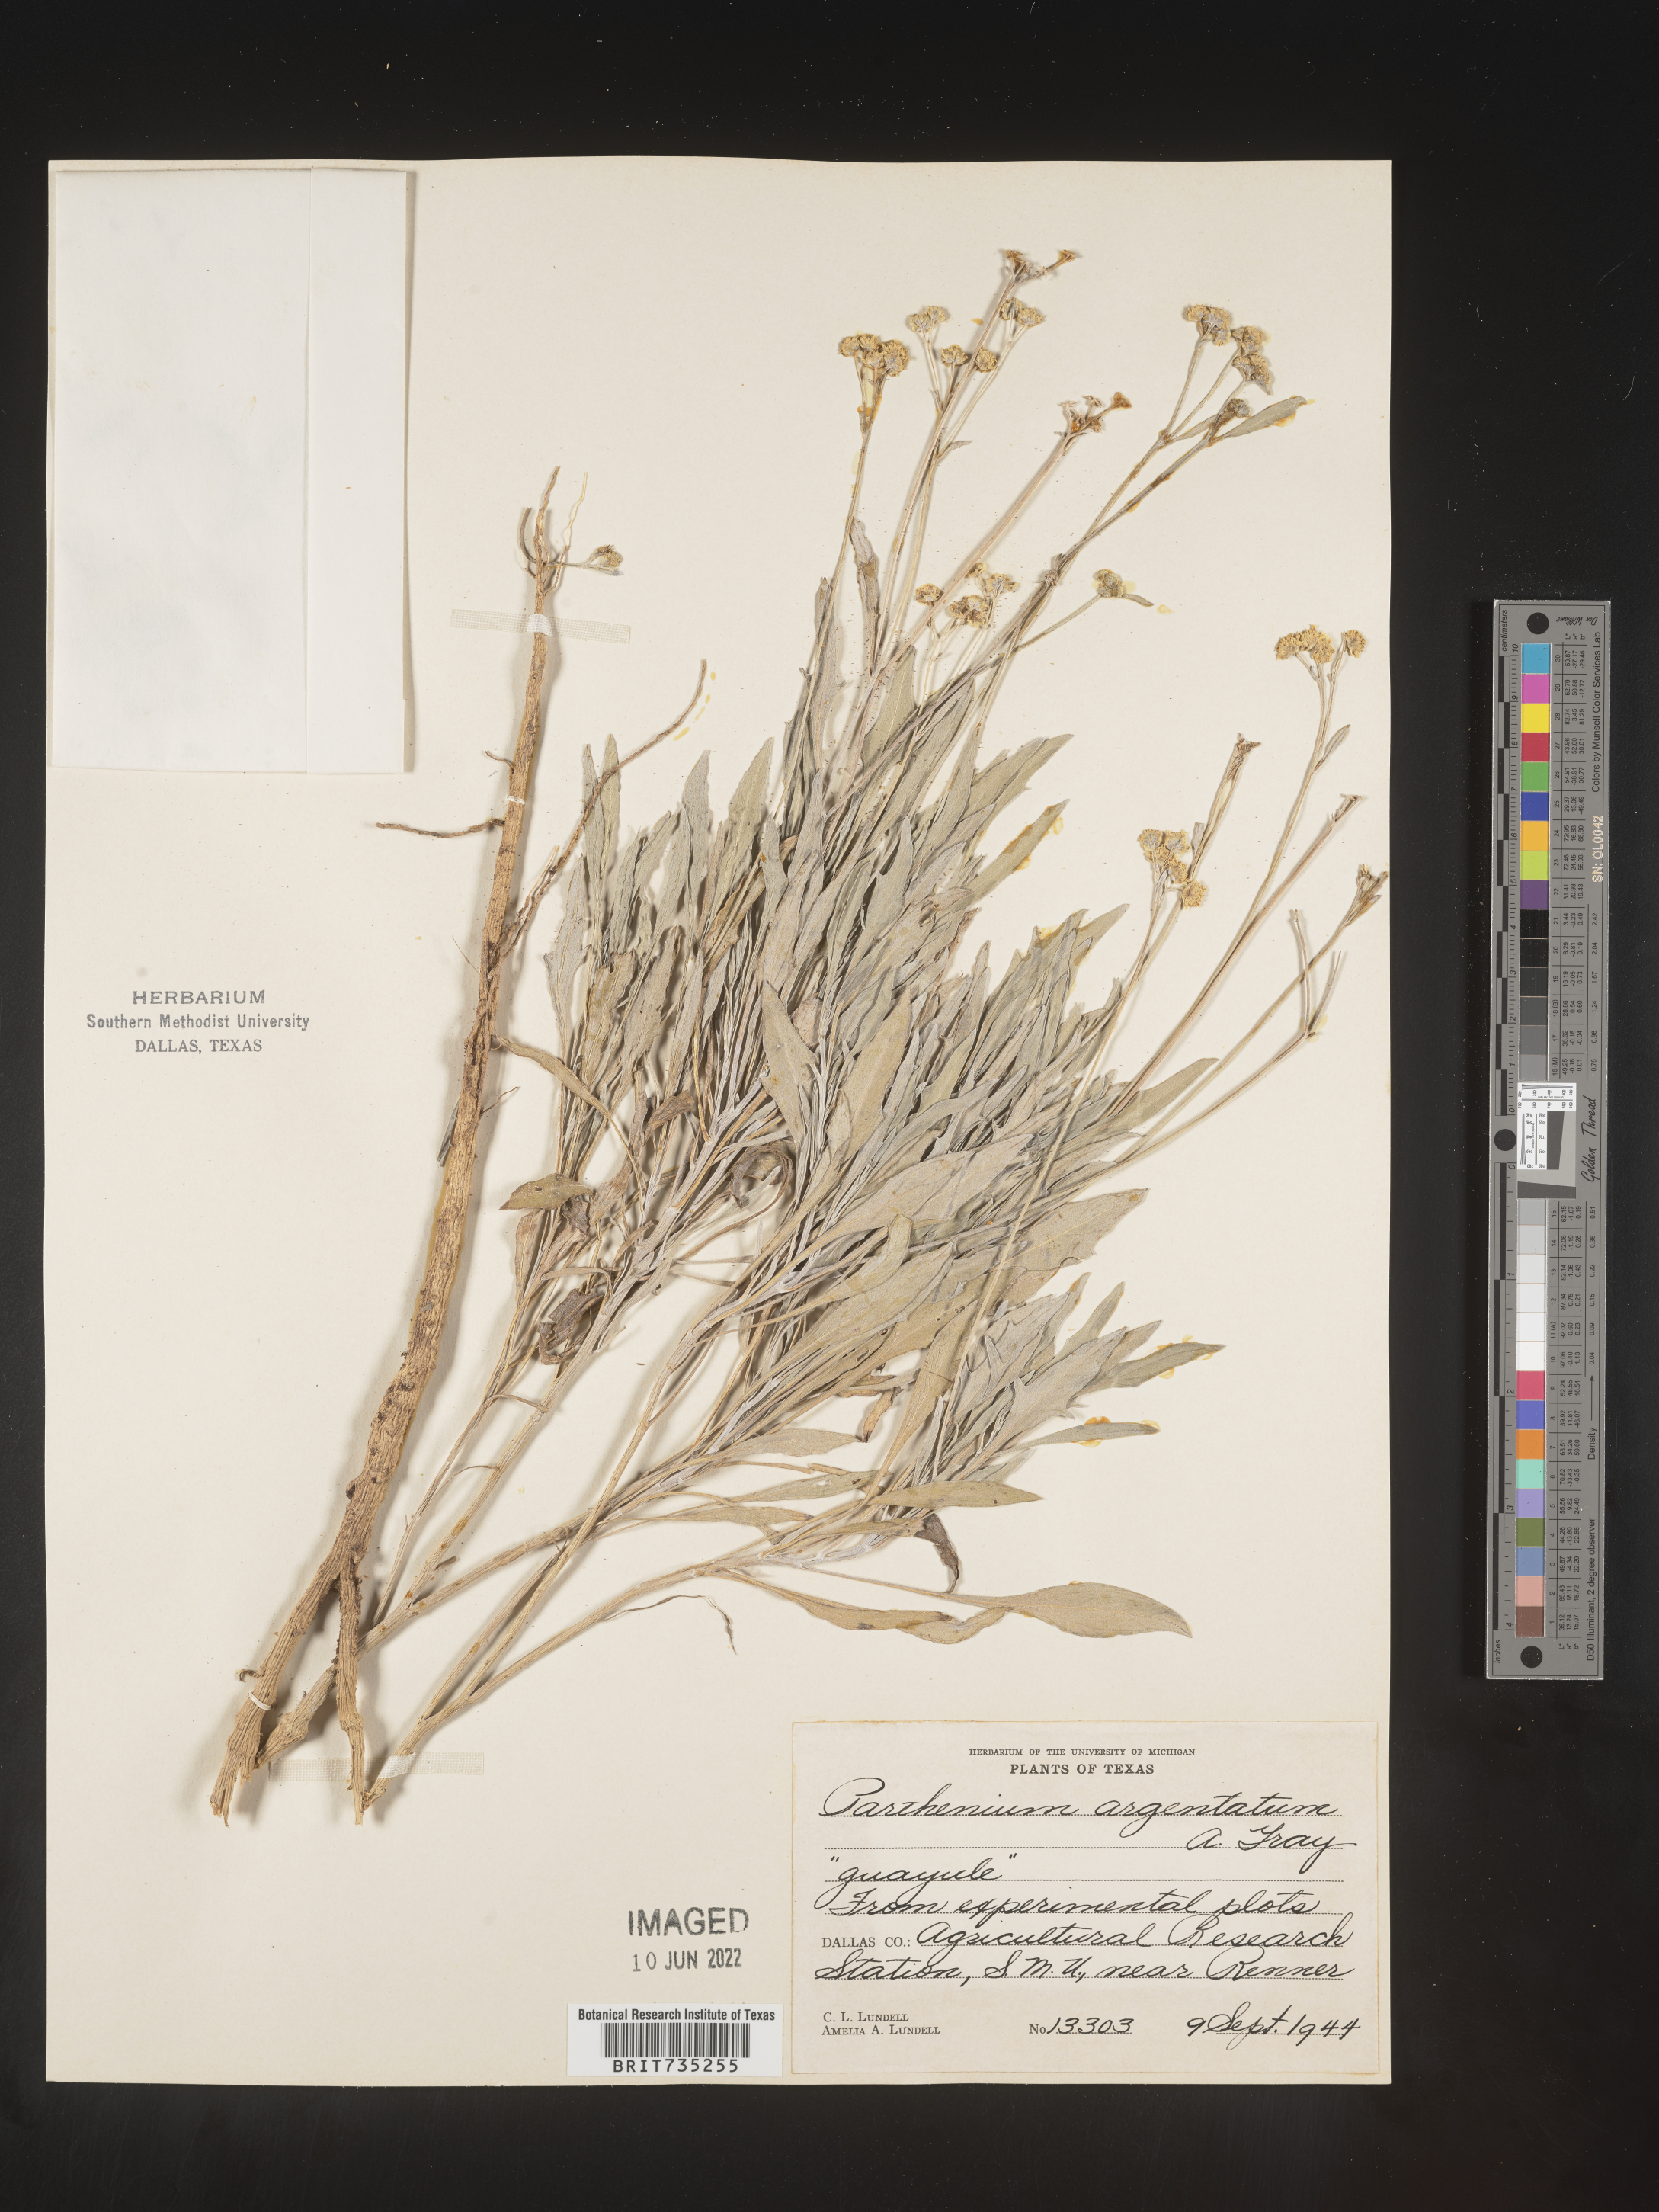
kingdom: Plantae
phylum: Tracheophyta
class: Magnoliopsida
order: Asterales
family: Asteraceae
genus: Parthenium
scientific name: Parthenium
